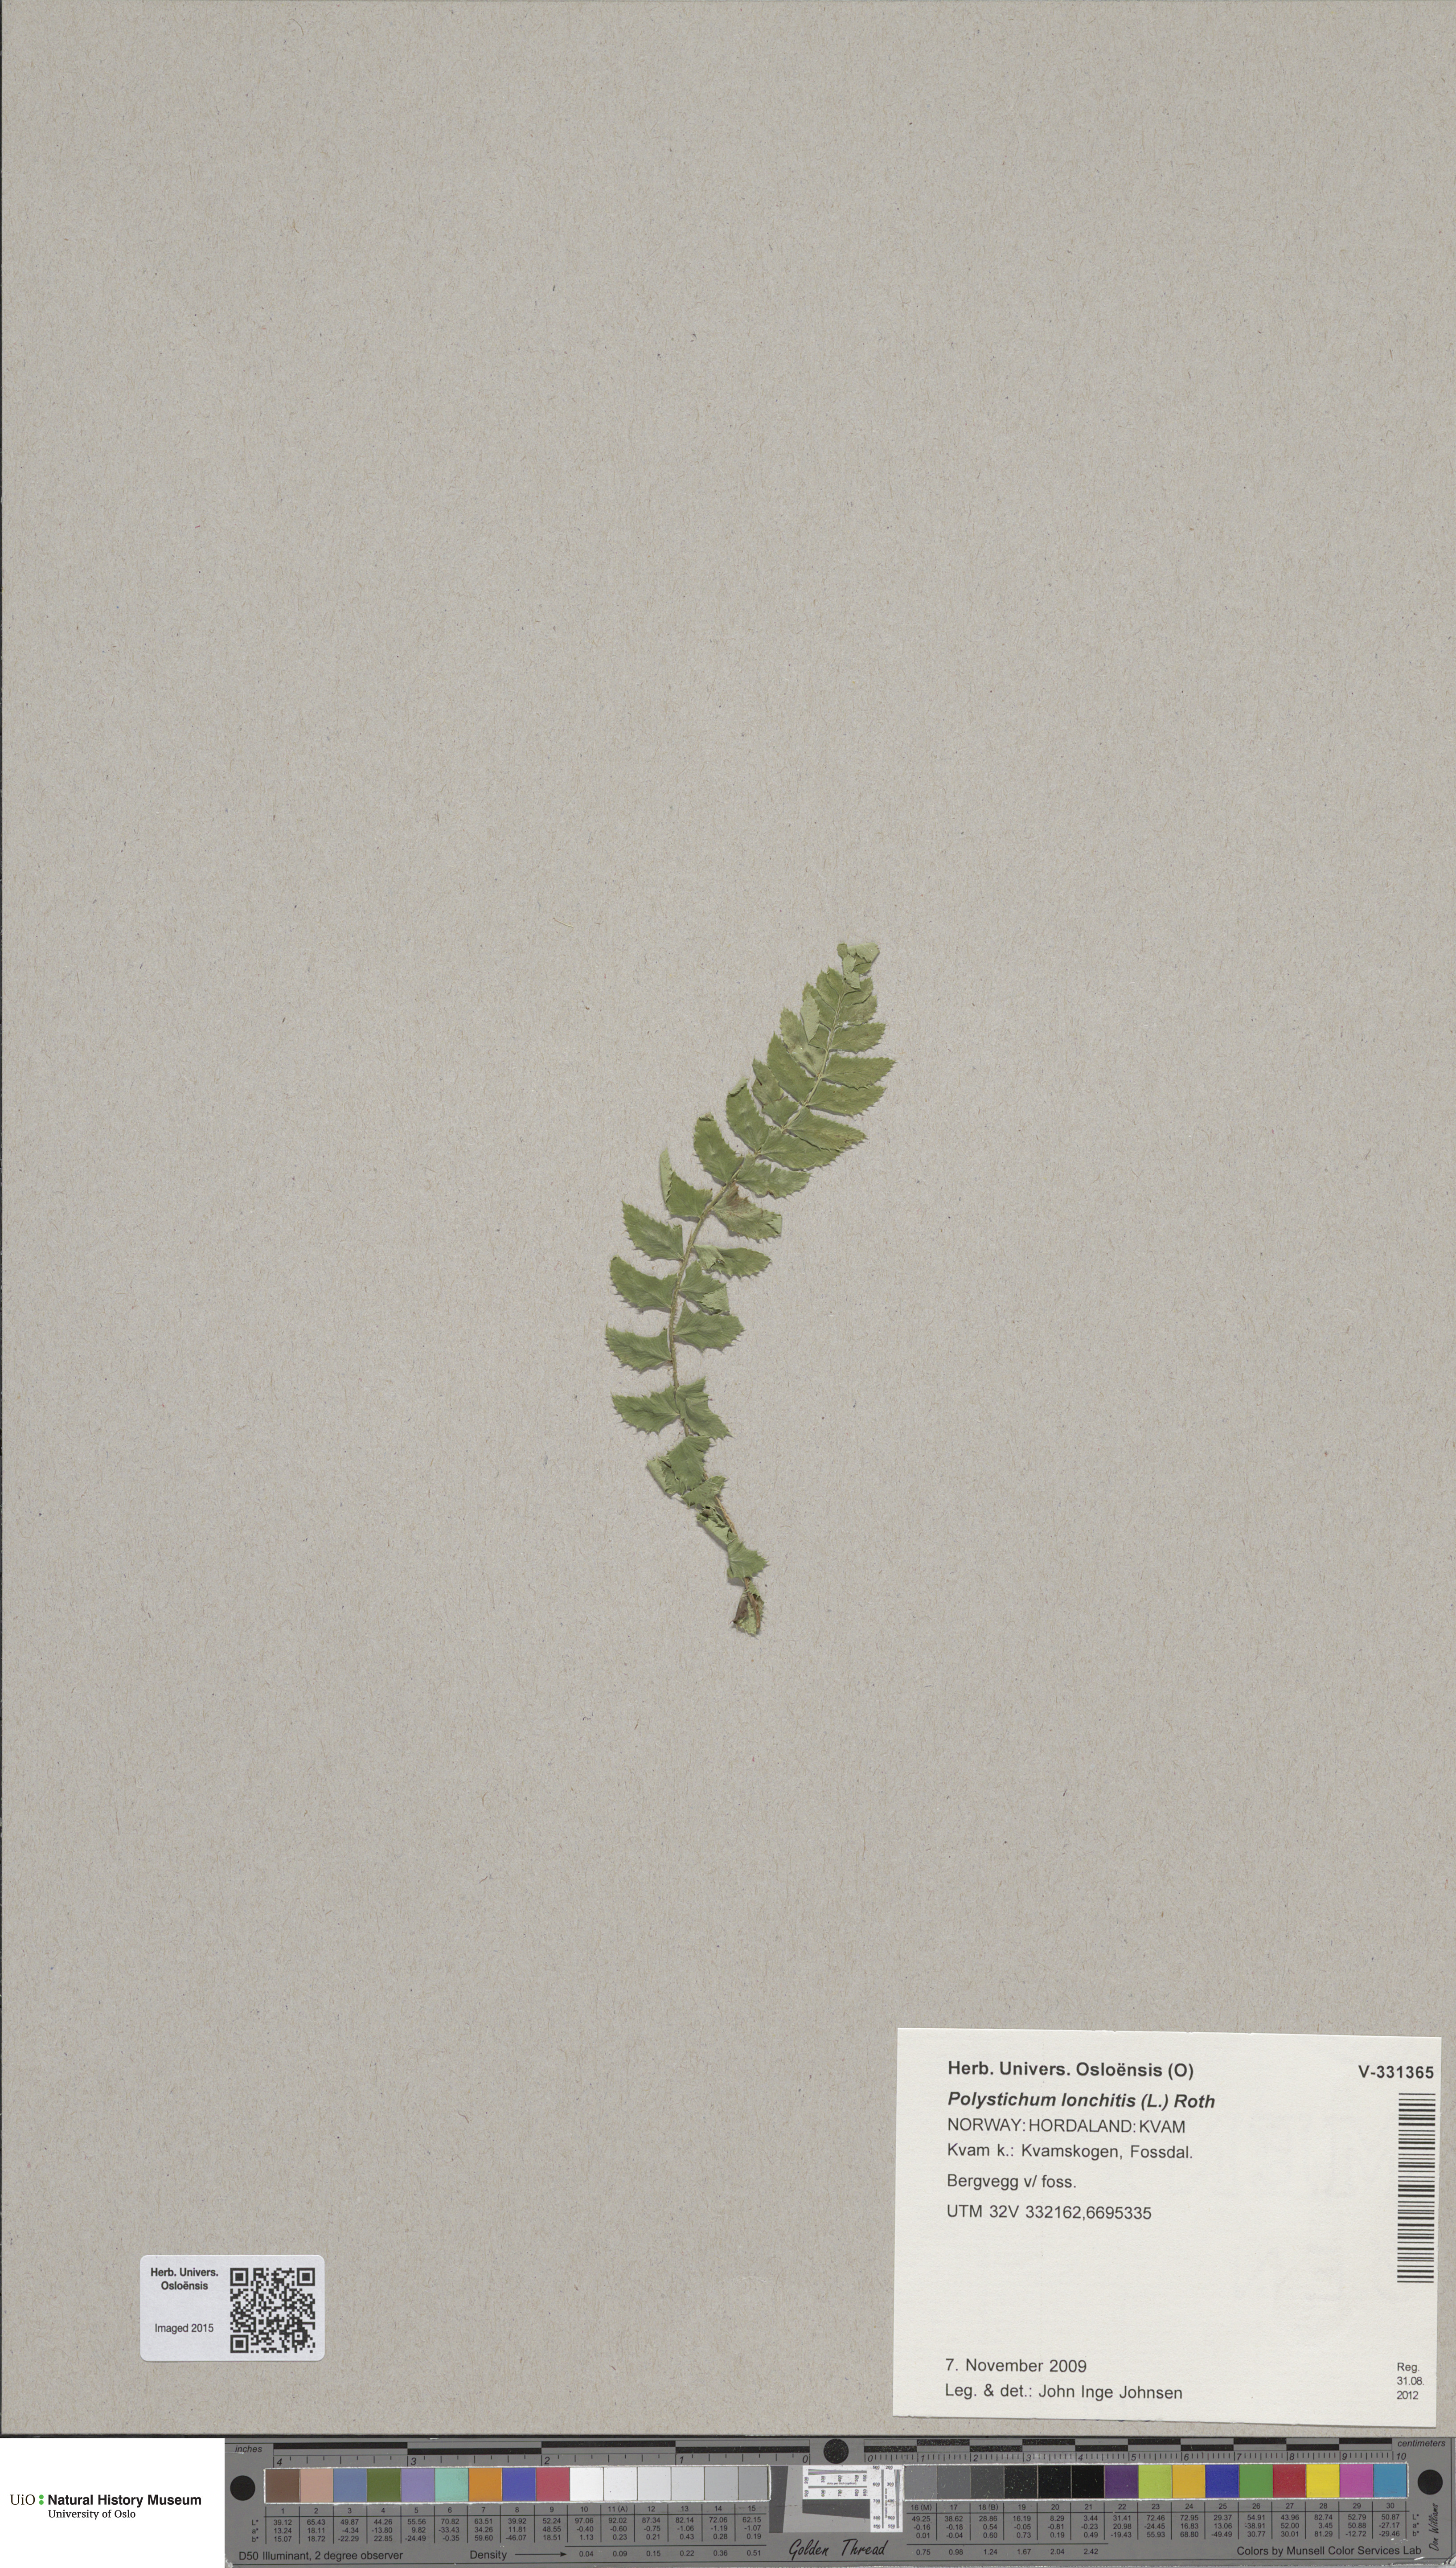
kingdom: Plantae
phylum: Tracheophyta
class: Polypodiopsida
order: Polypodiales
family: Dryopteridaceae
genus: Polystichum
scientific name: Polystichum lonchitis
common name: Holly fern
